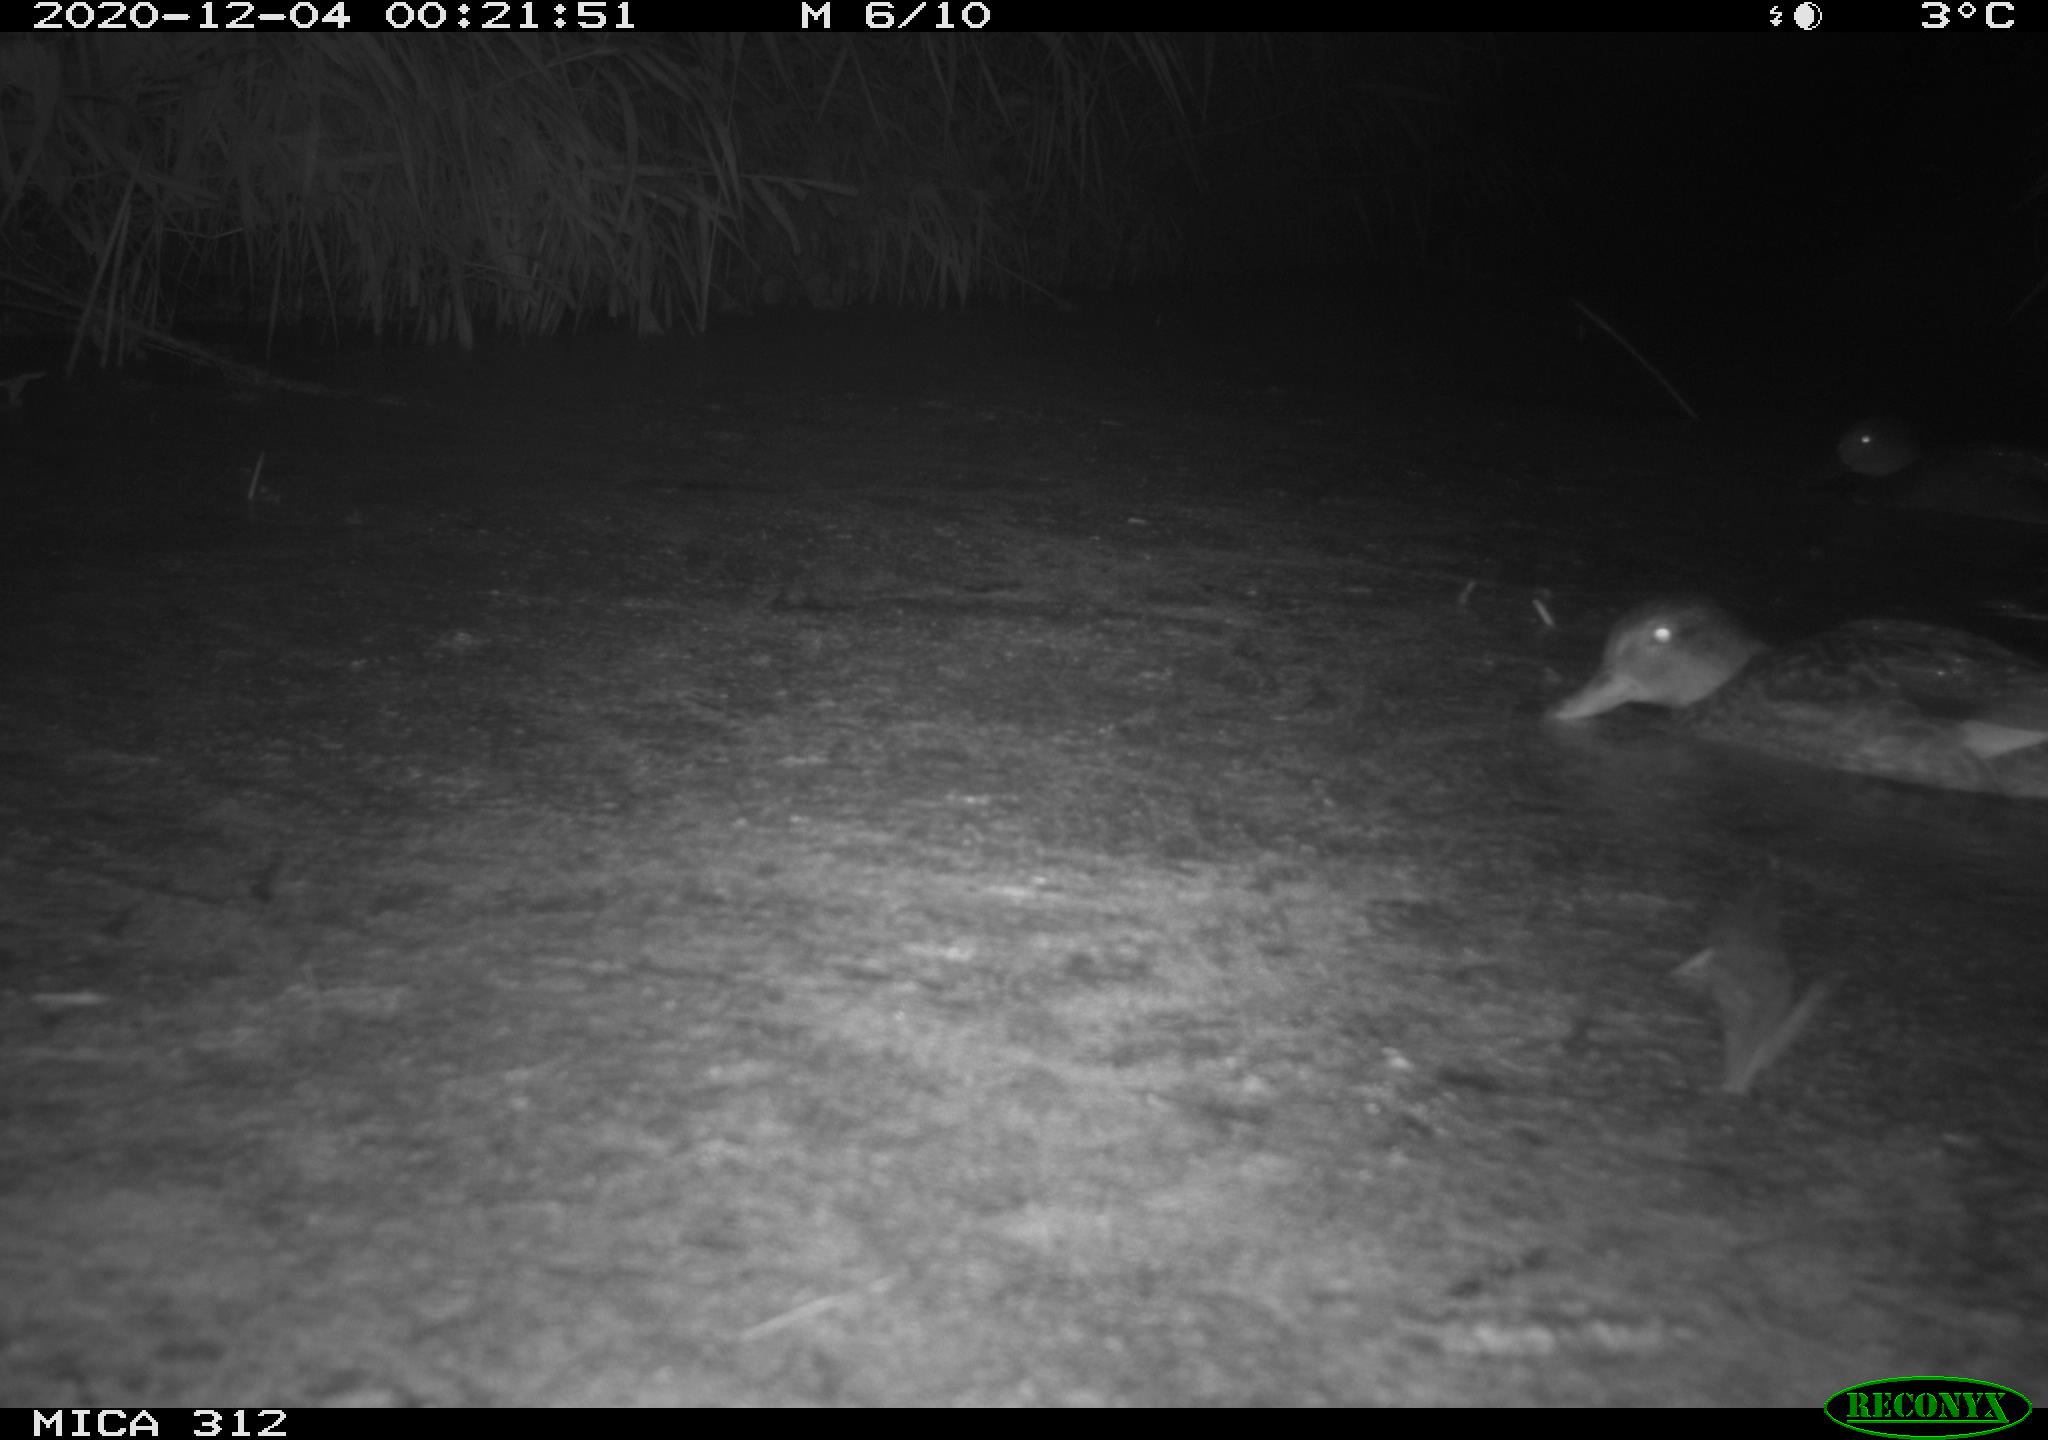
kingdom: Animalia
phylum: Chordata
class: Aves
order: Anseriformes
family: Anatidae
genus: Mareca
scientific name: Mareca strepera
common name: Gadwall
